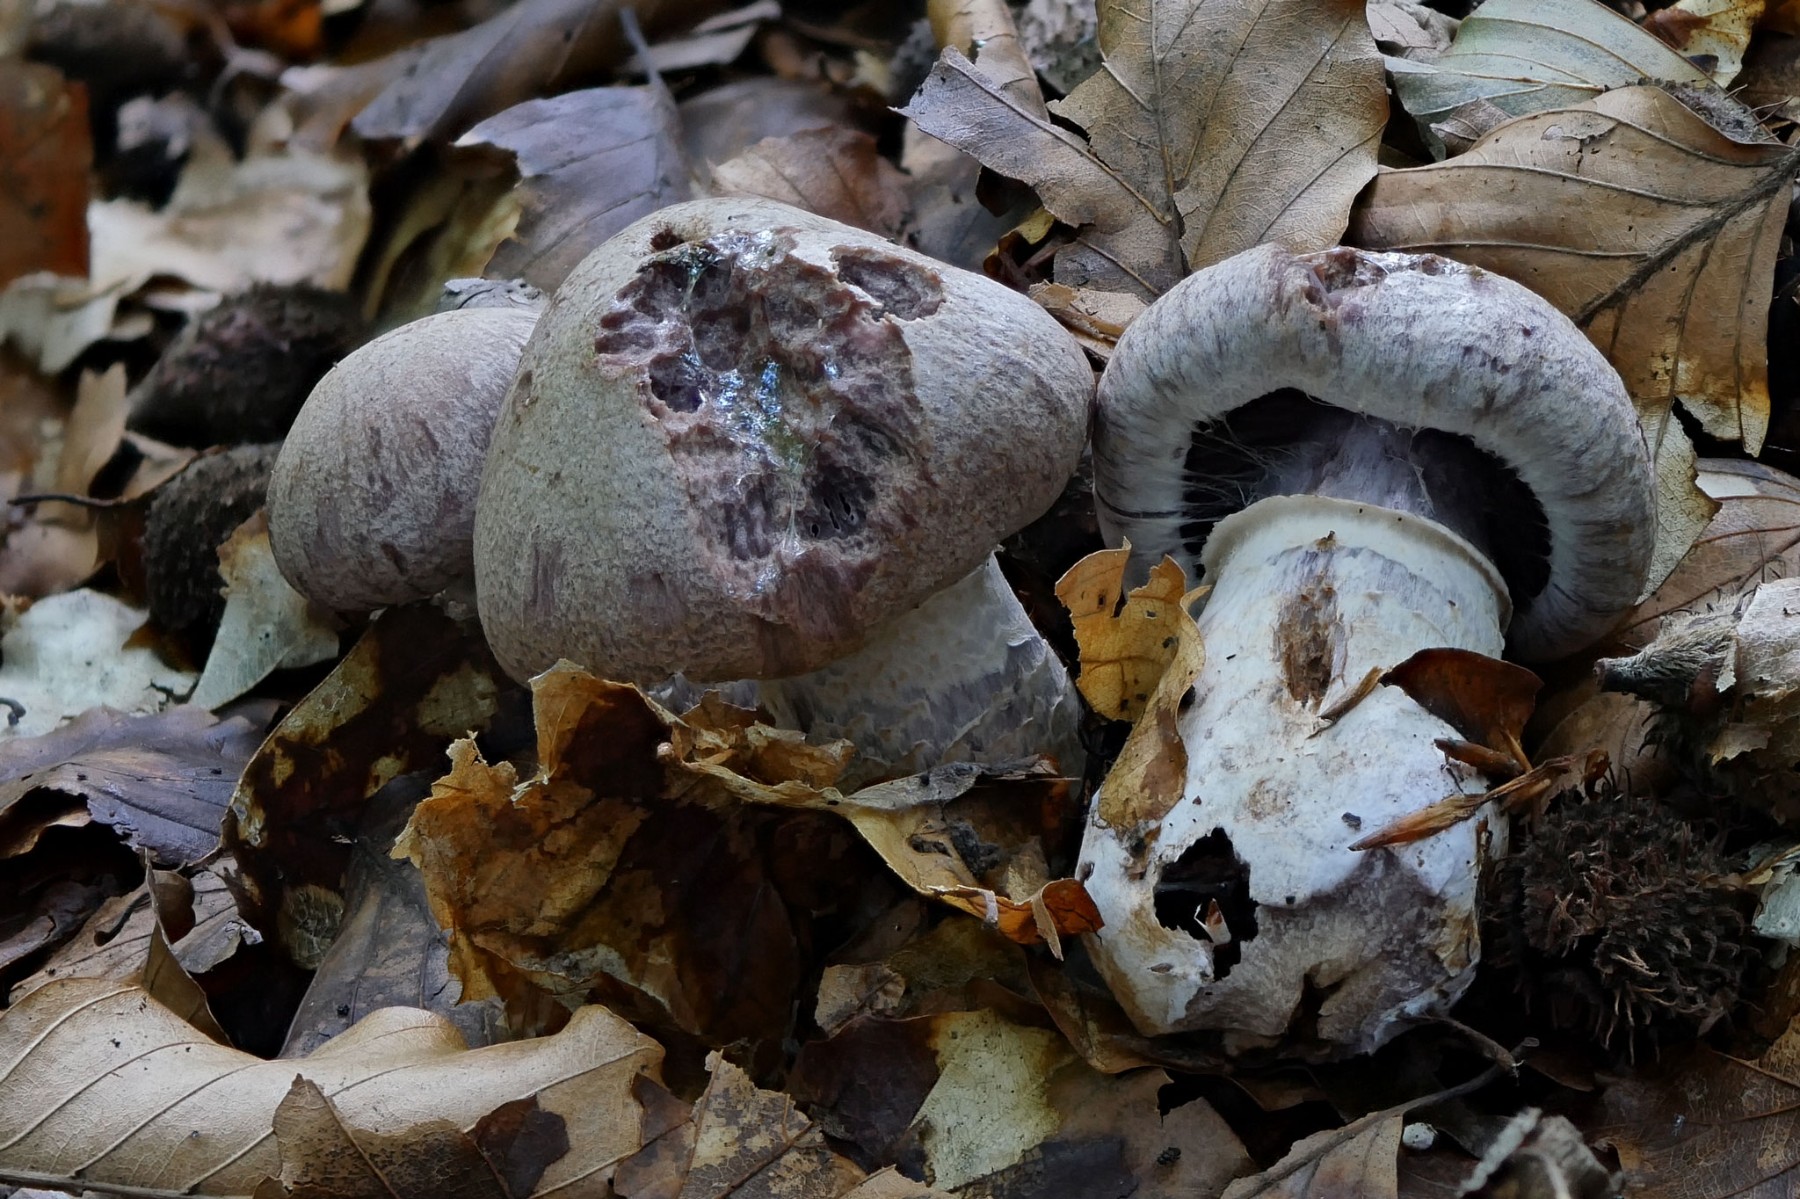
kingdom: Fungi
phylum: Basidiomycota
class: Agaricomycetes
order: Agaricales
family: Cortinariaceae
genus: Cortinarius
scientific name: Cortinarius torvus
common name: champignonagtig slørhat
